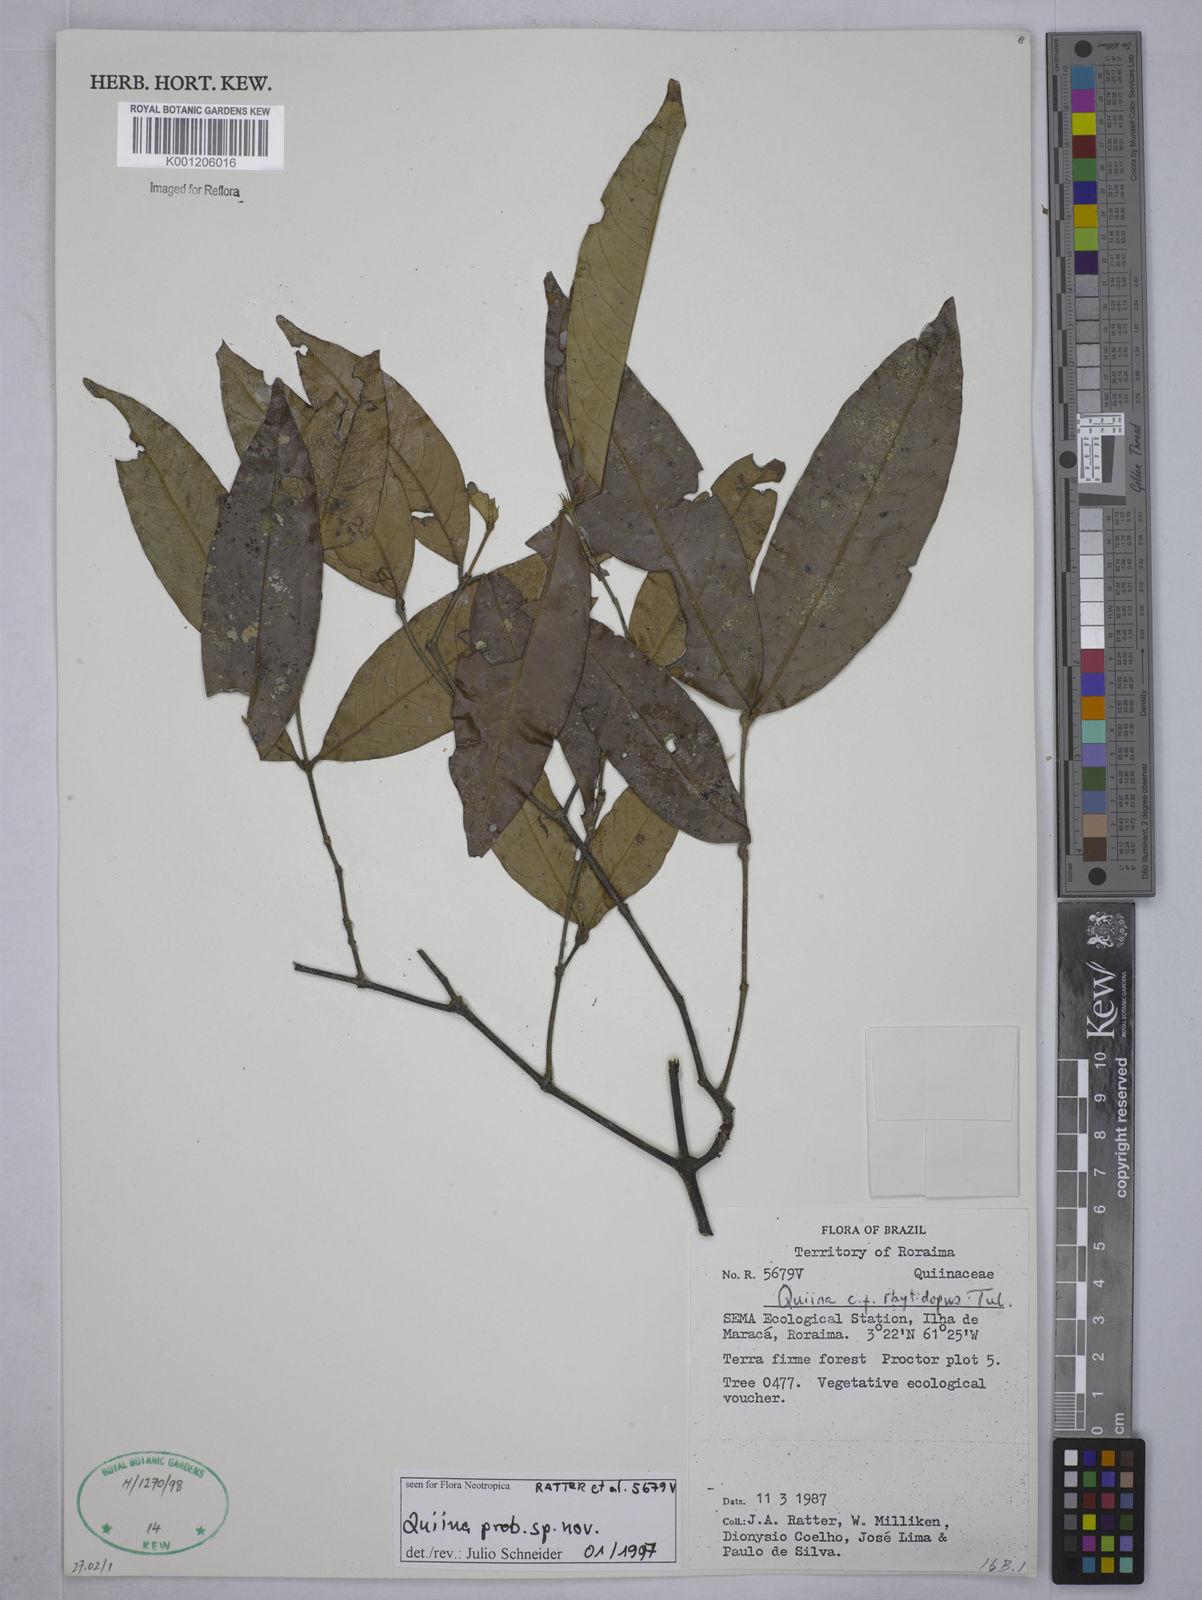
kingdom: Plantae
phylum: Tracheophyta
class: Magnoliopsida
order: Malpighiales
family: Quiinaceae
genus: Quiina
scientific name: Quiina
